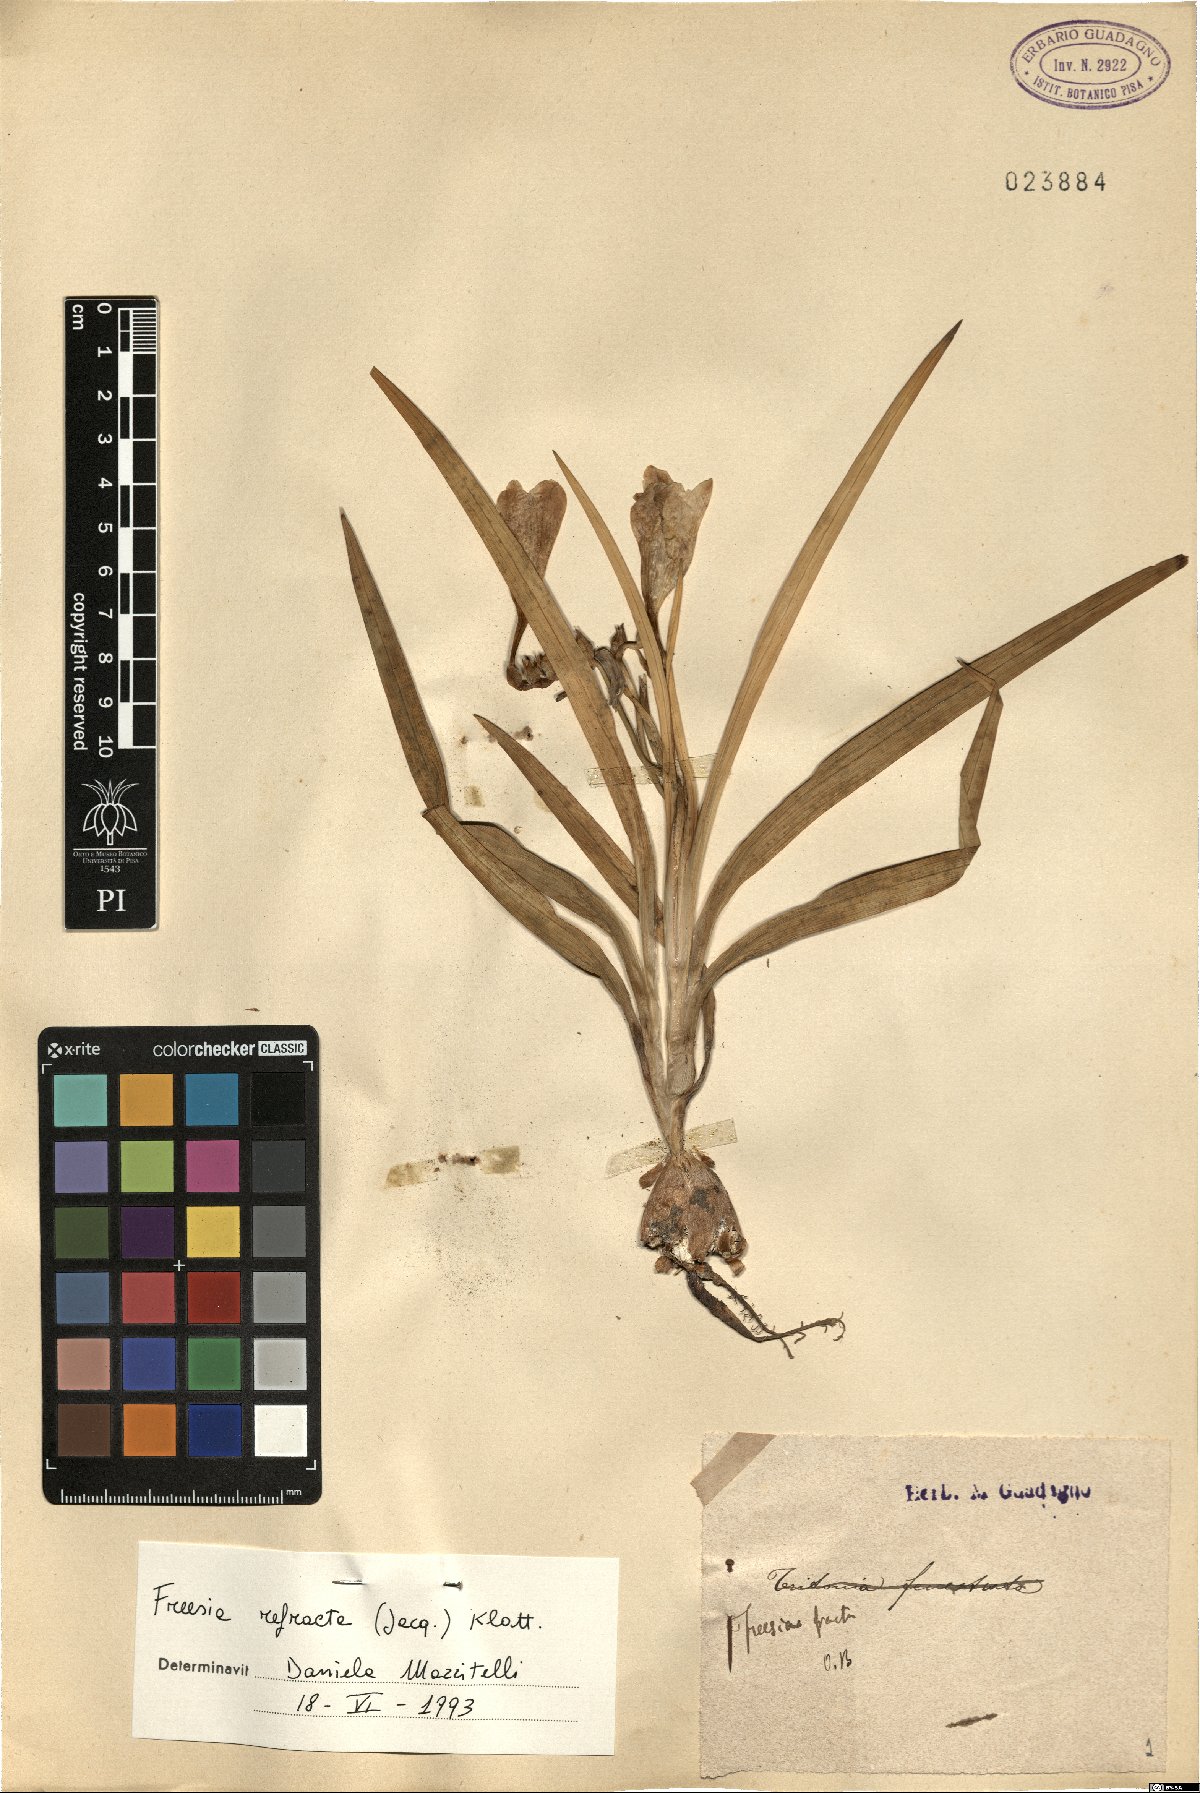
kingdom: Plantae
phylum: Tracheophyta
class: Liliopsida
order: Asparagales
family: Iridaceae
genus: Freesia
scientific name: Freesia refracta
